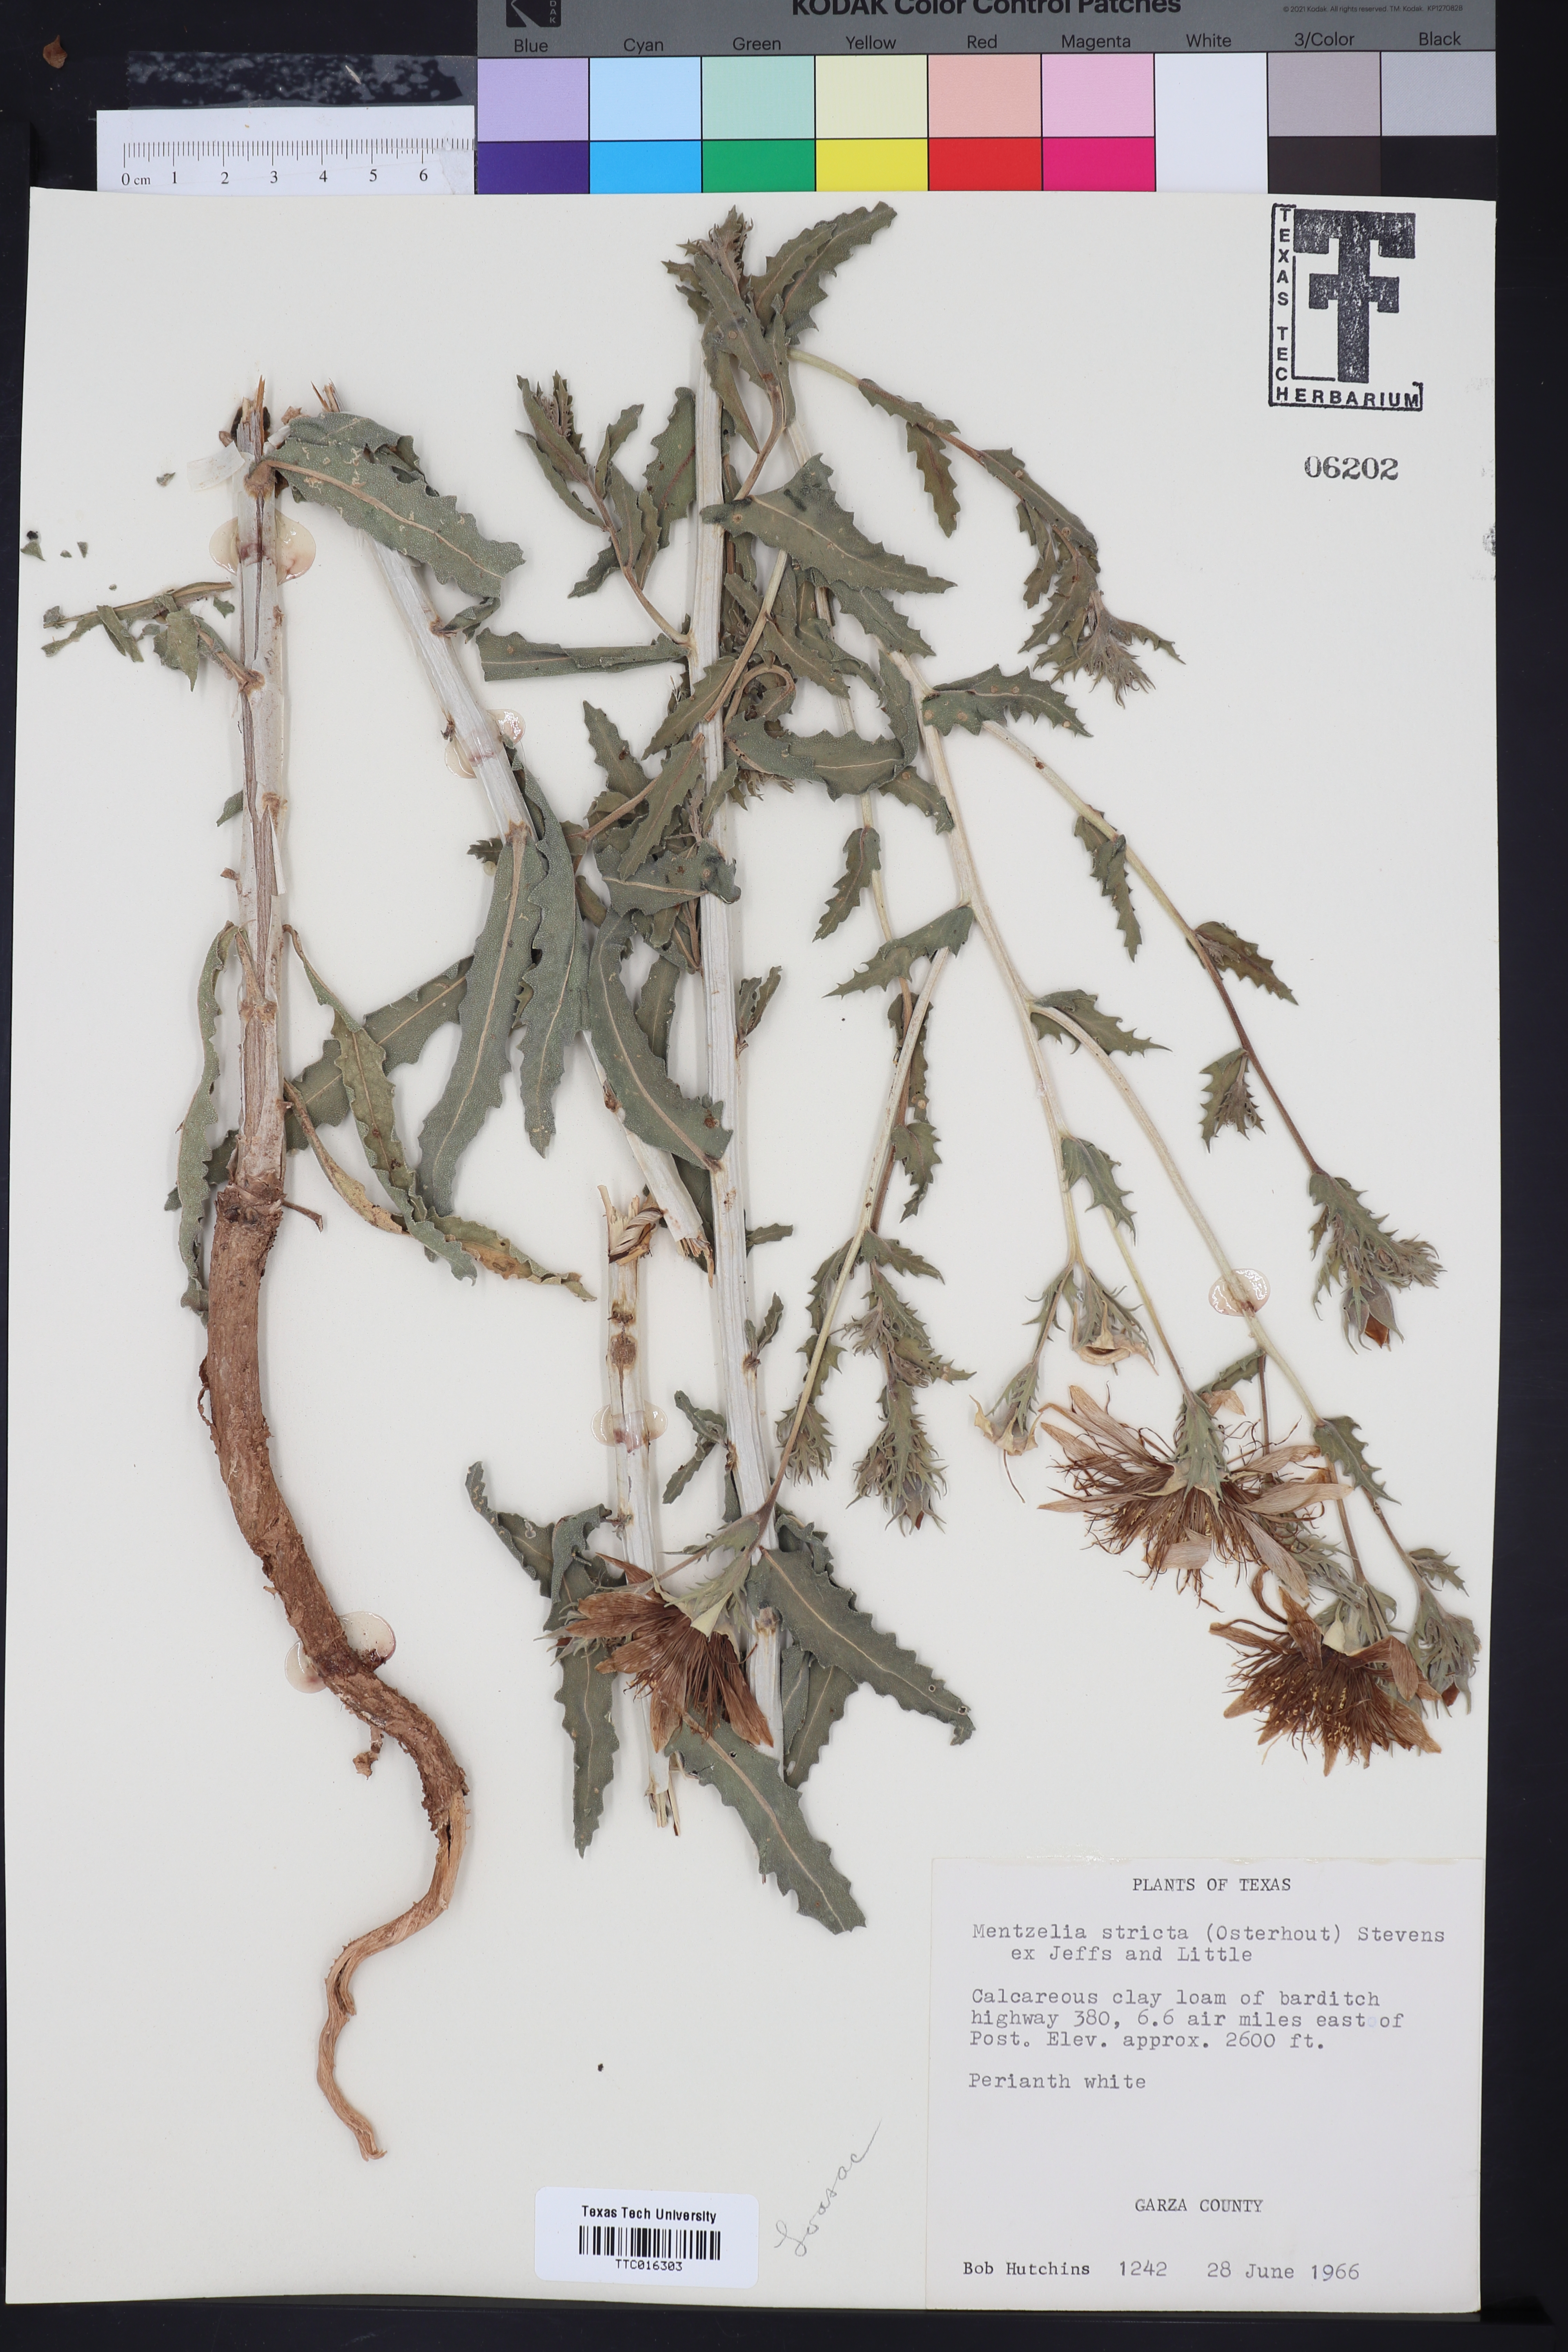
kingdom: Plantae
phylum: Tracheophyta
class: Magnoliopsida
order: Cornales
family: Loasaceae
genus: Mentzelia
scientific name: Mentzelia nuda
